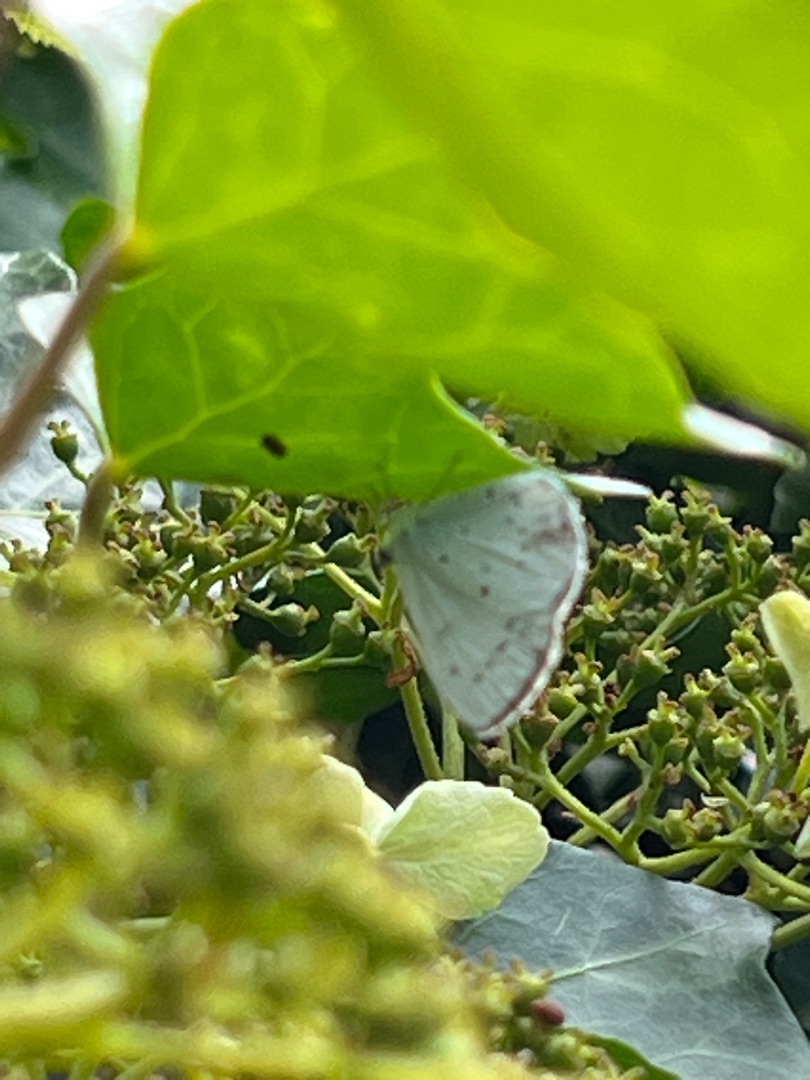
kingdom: Animalia
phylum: Arthropoda
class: Insecta
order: Lepidoptera
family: Lycaenidae
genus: Celastrina
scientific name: Celastrina argiolus
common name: Skovblåfugl
